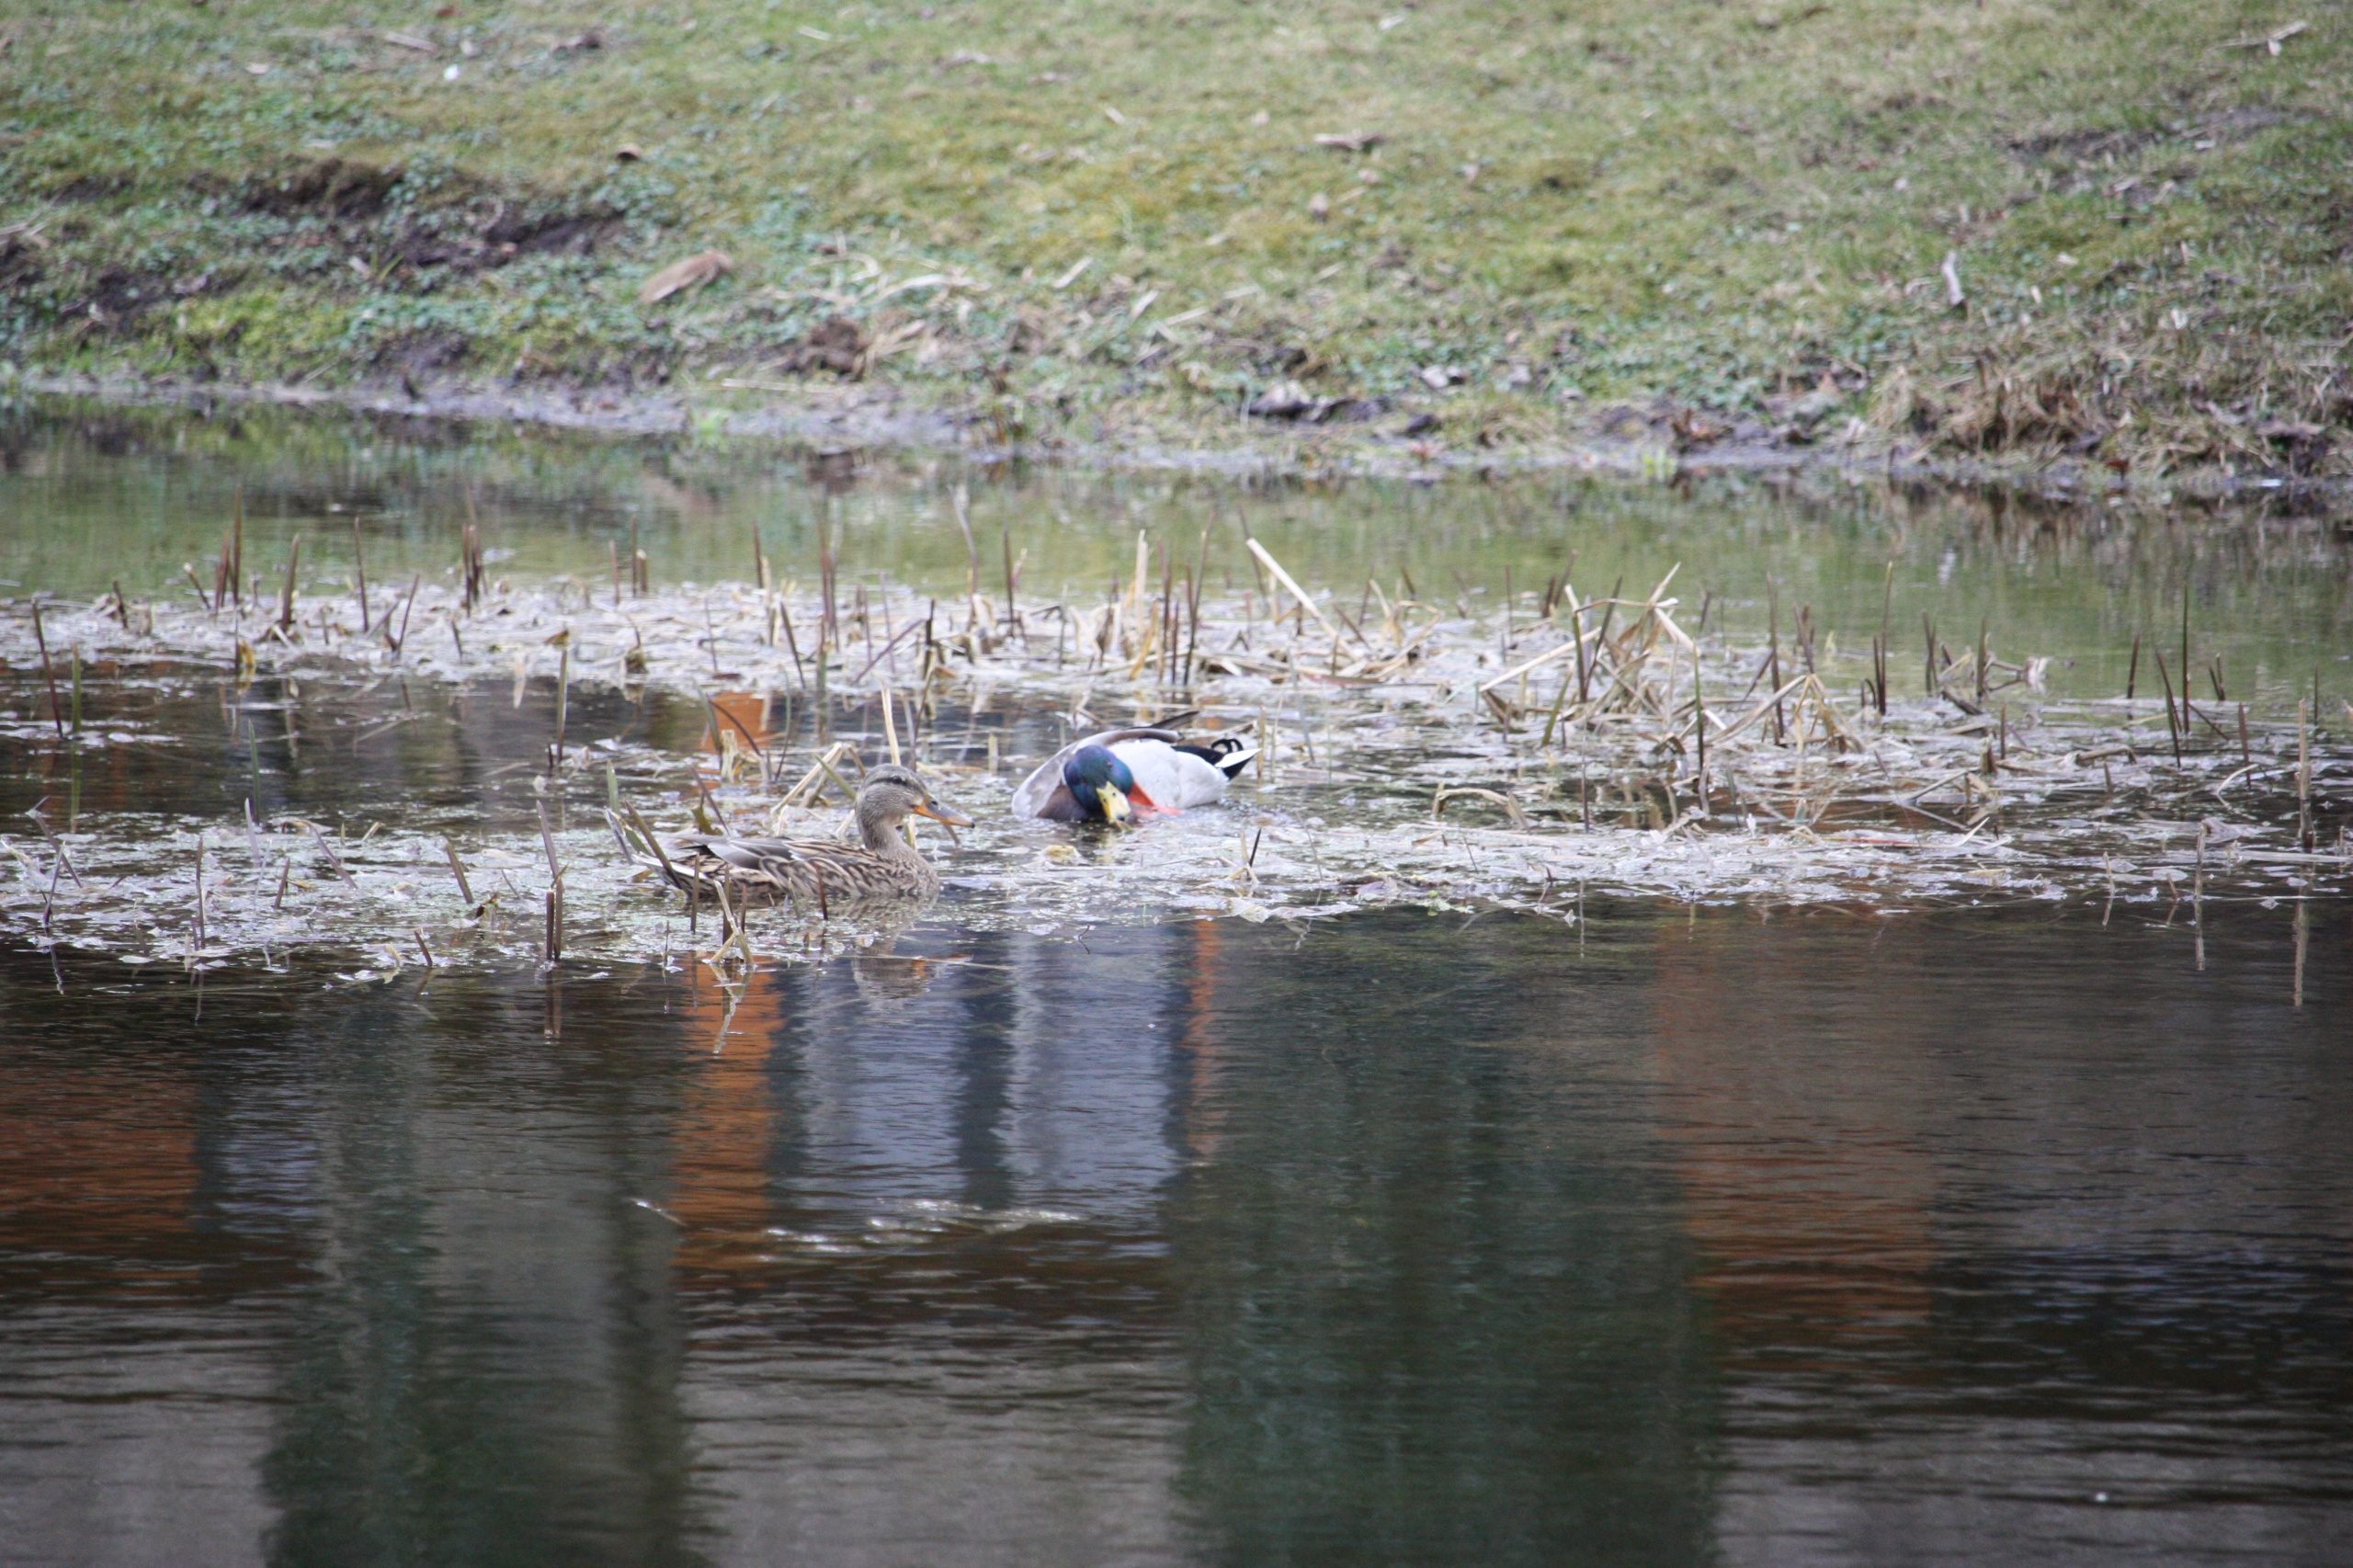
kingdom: Animalia
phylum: Chordata
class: Aves
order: Anseriformes
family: Anatidae
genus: Anas
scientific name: Anas platyrhynchos
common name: Gråand
